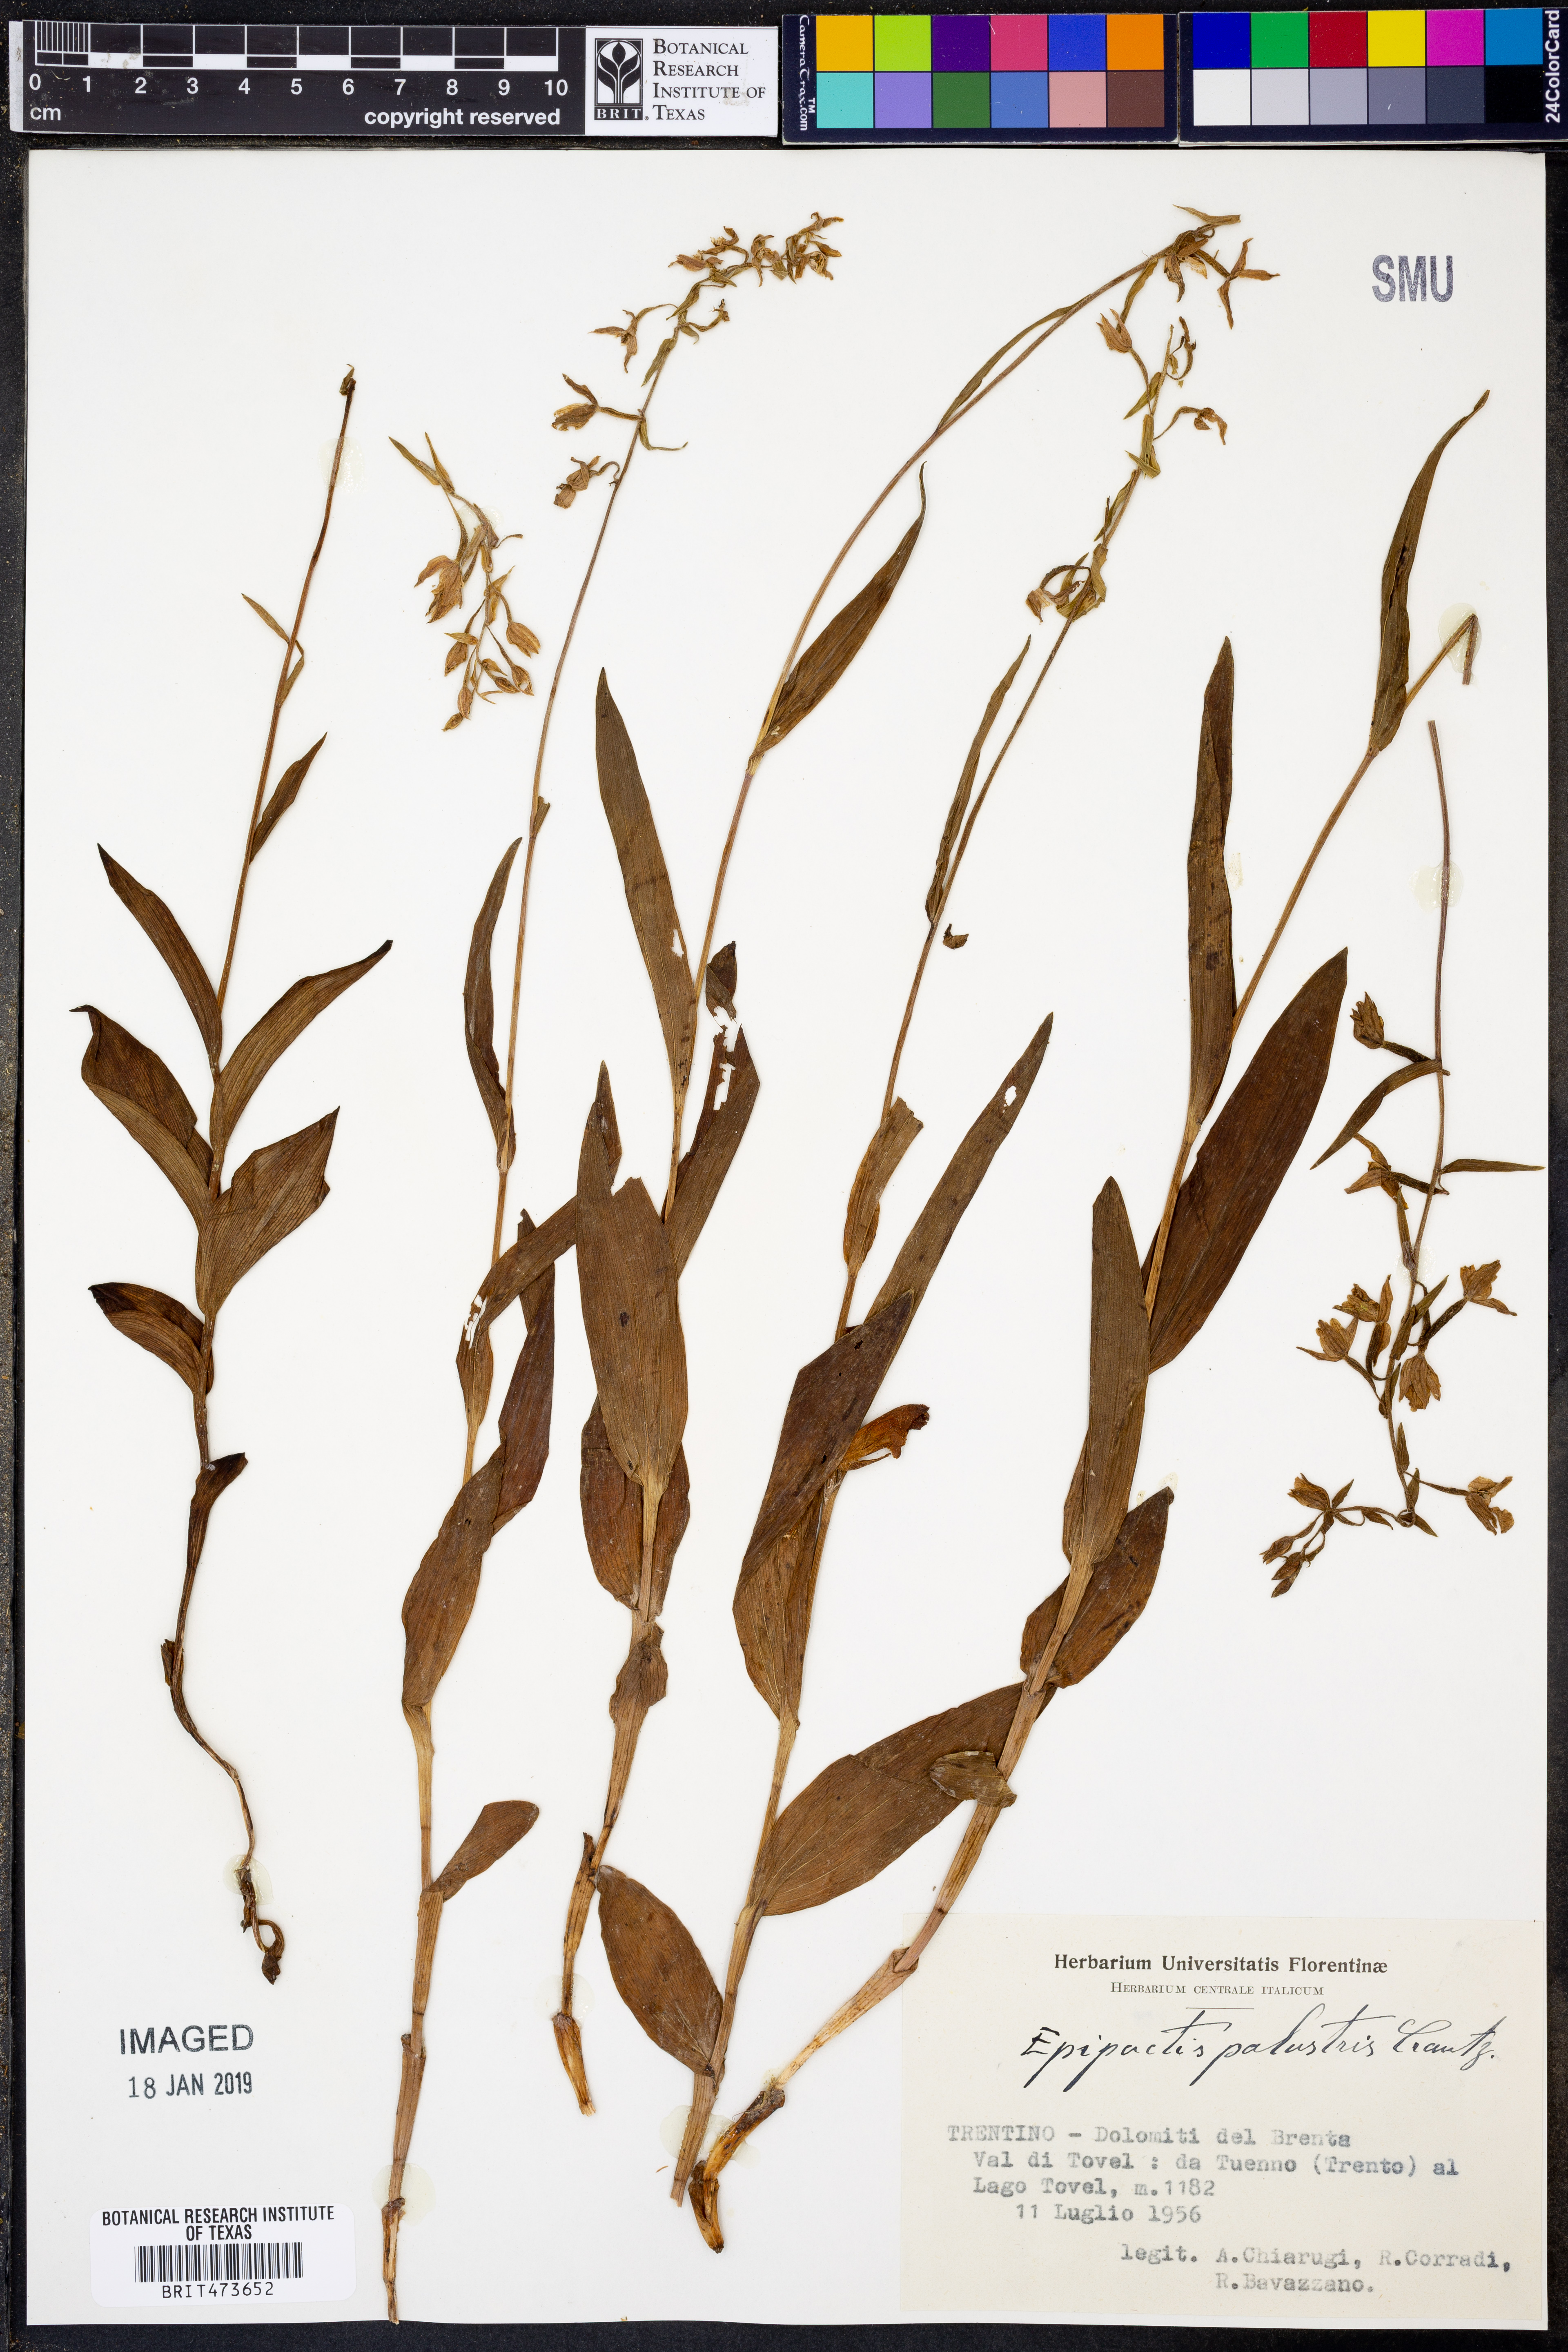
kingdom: Plantae
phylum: Tracheophyta
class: Liliopsida
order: Asparagales
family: Orchidaceae
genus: Epipactis
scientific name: Epipactis palustris
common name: Marsh helleborine
